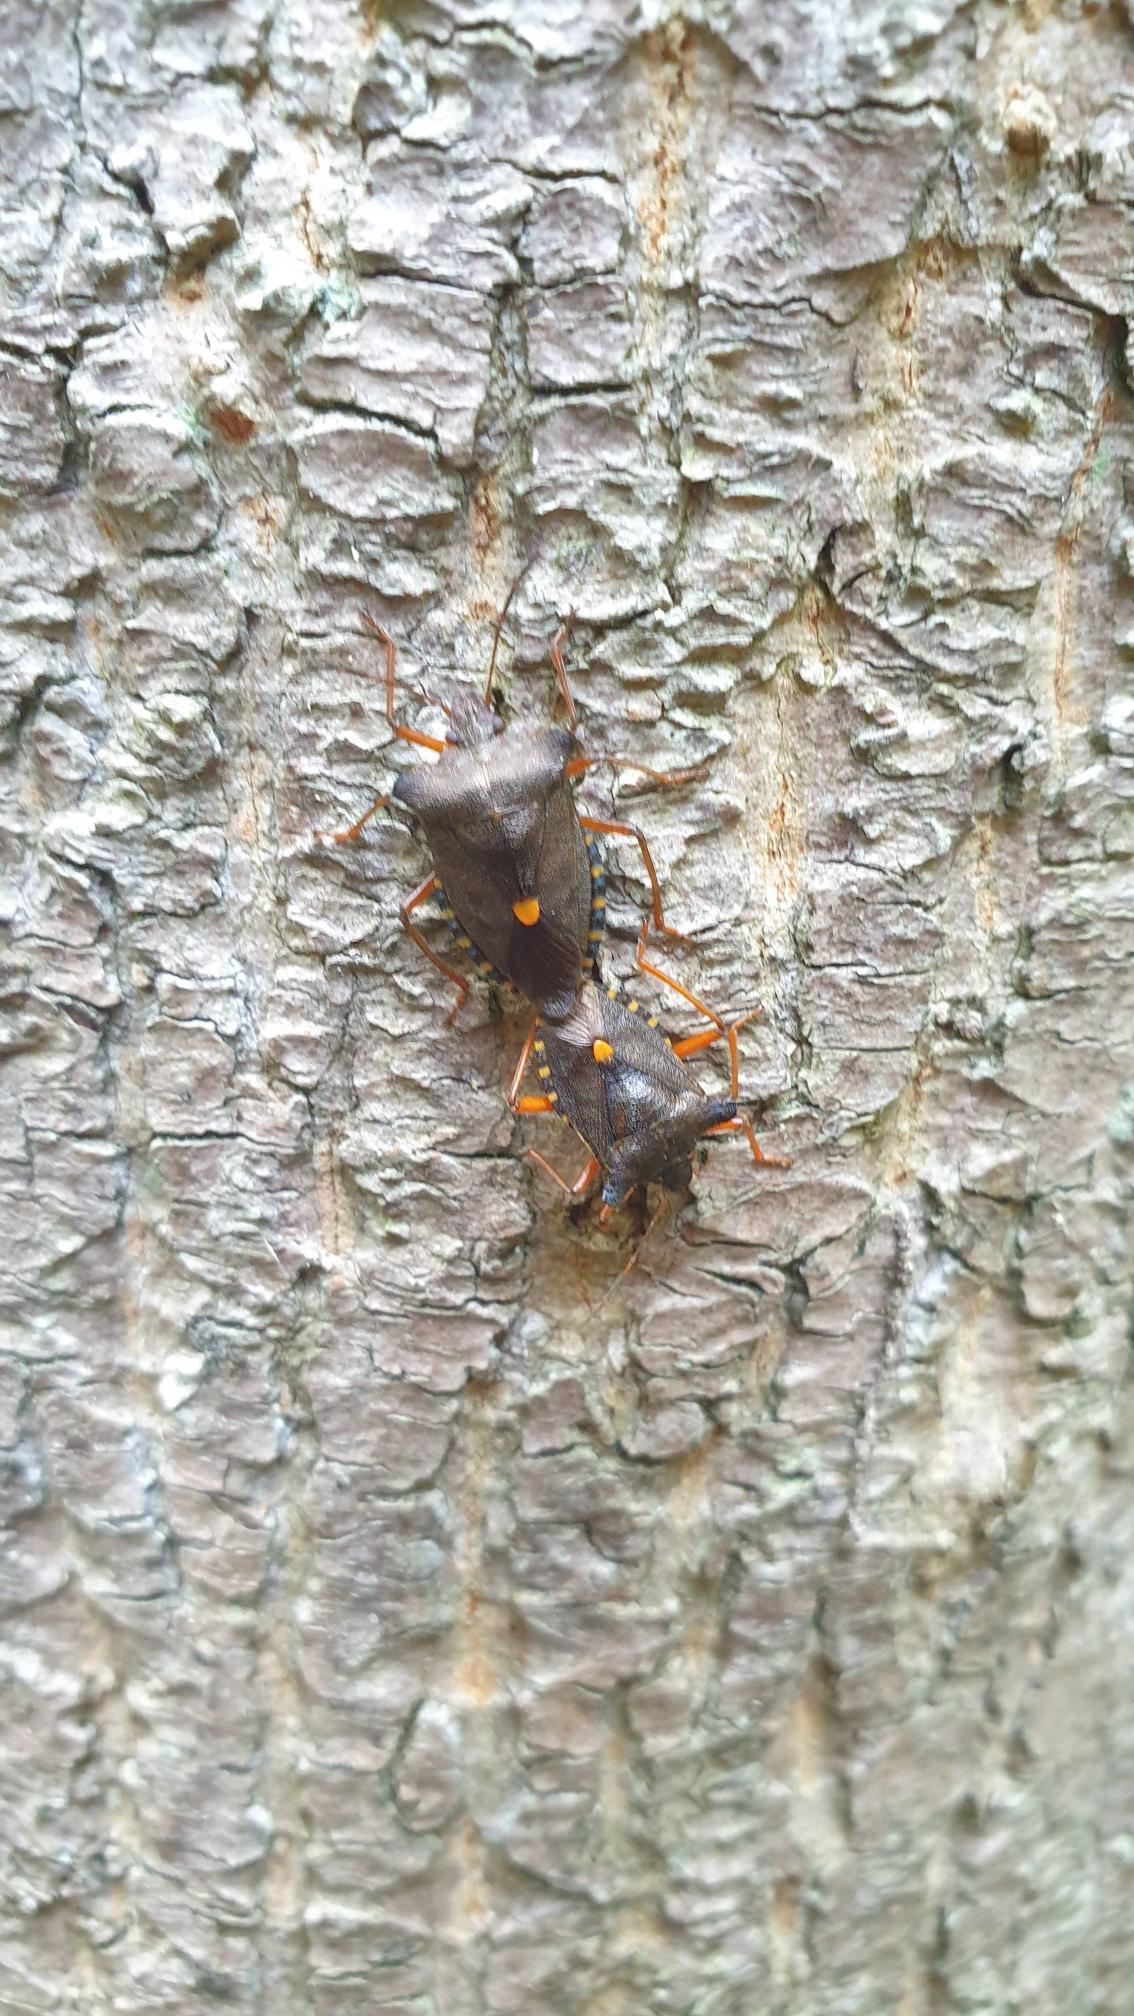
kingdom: Animalia
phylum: Arthropoda
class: Insecta
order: Hemiptera
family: Pentatomidae
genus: Pentatoma
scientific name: Pentatoma rufipes
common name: Rødbenet bredtæge
